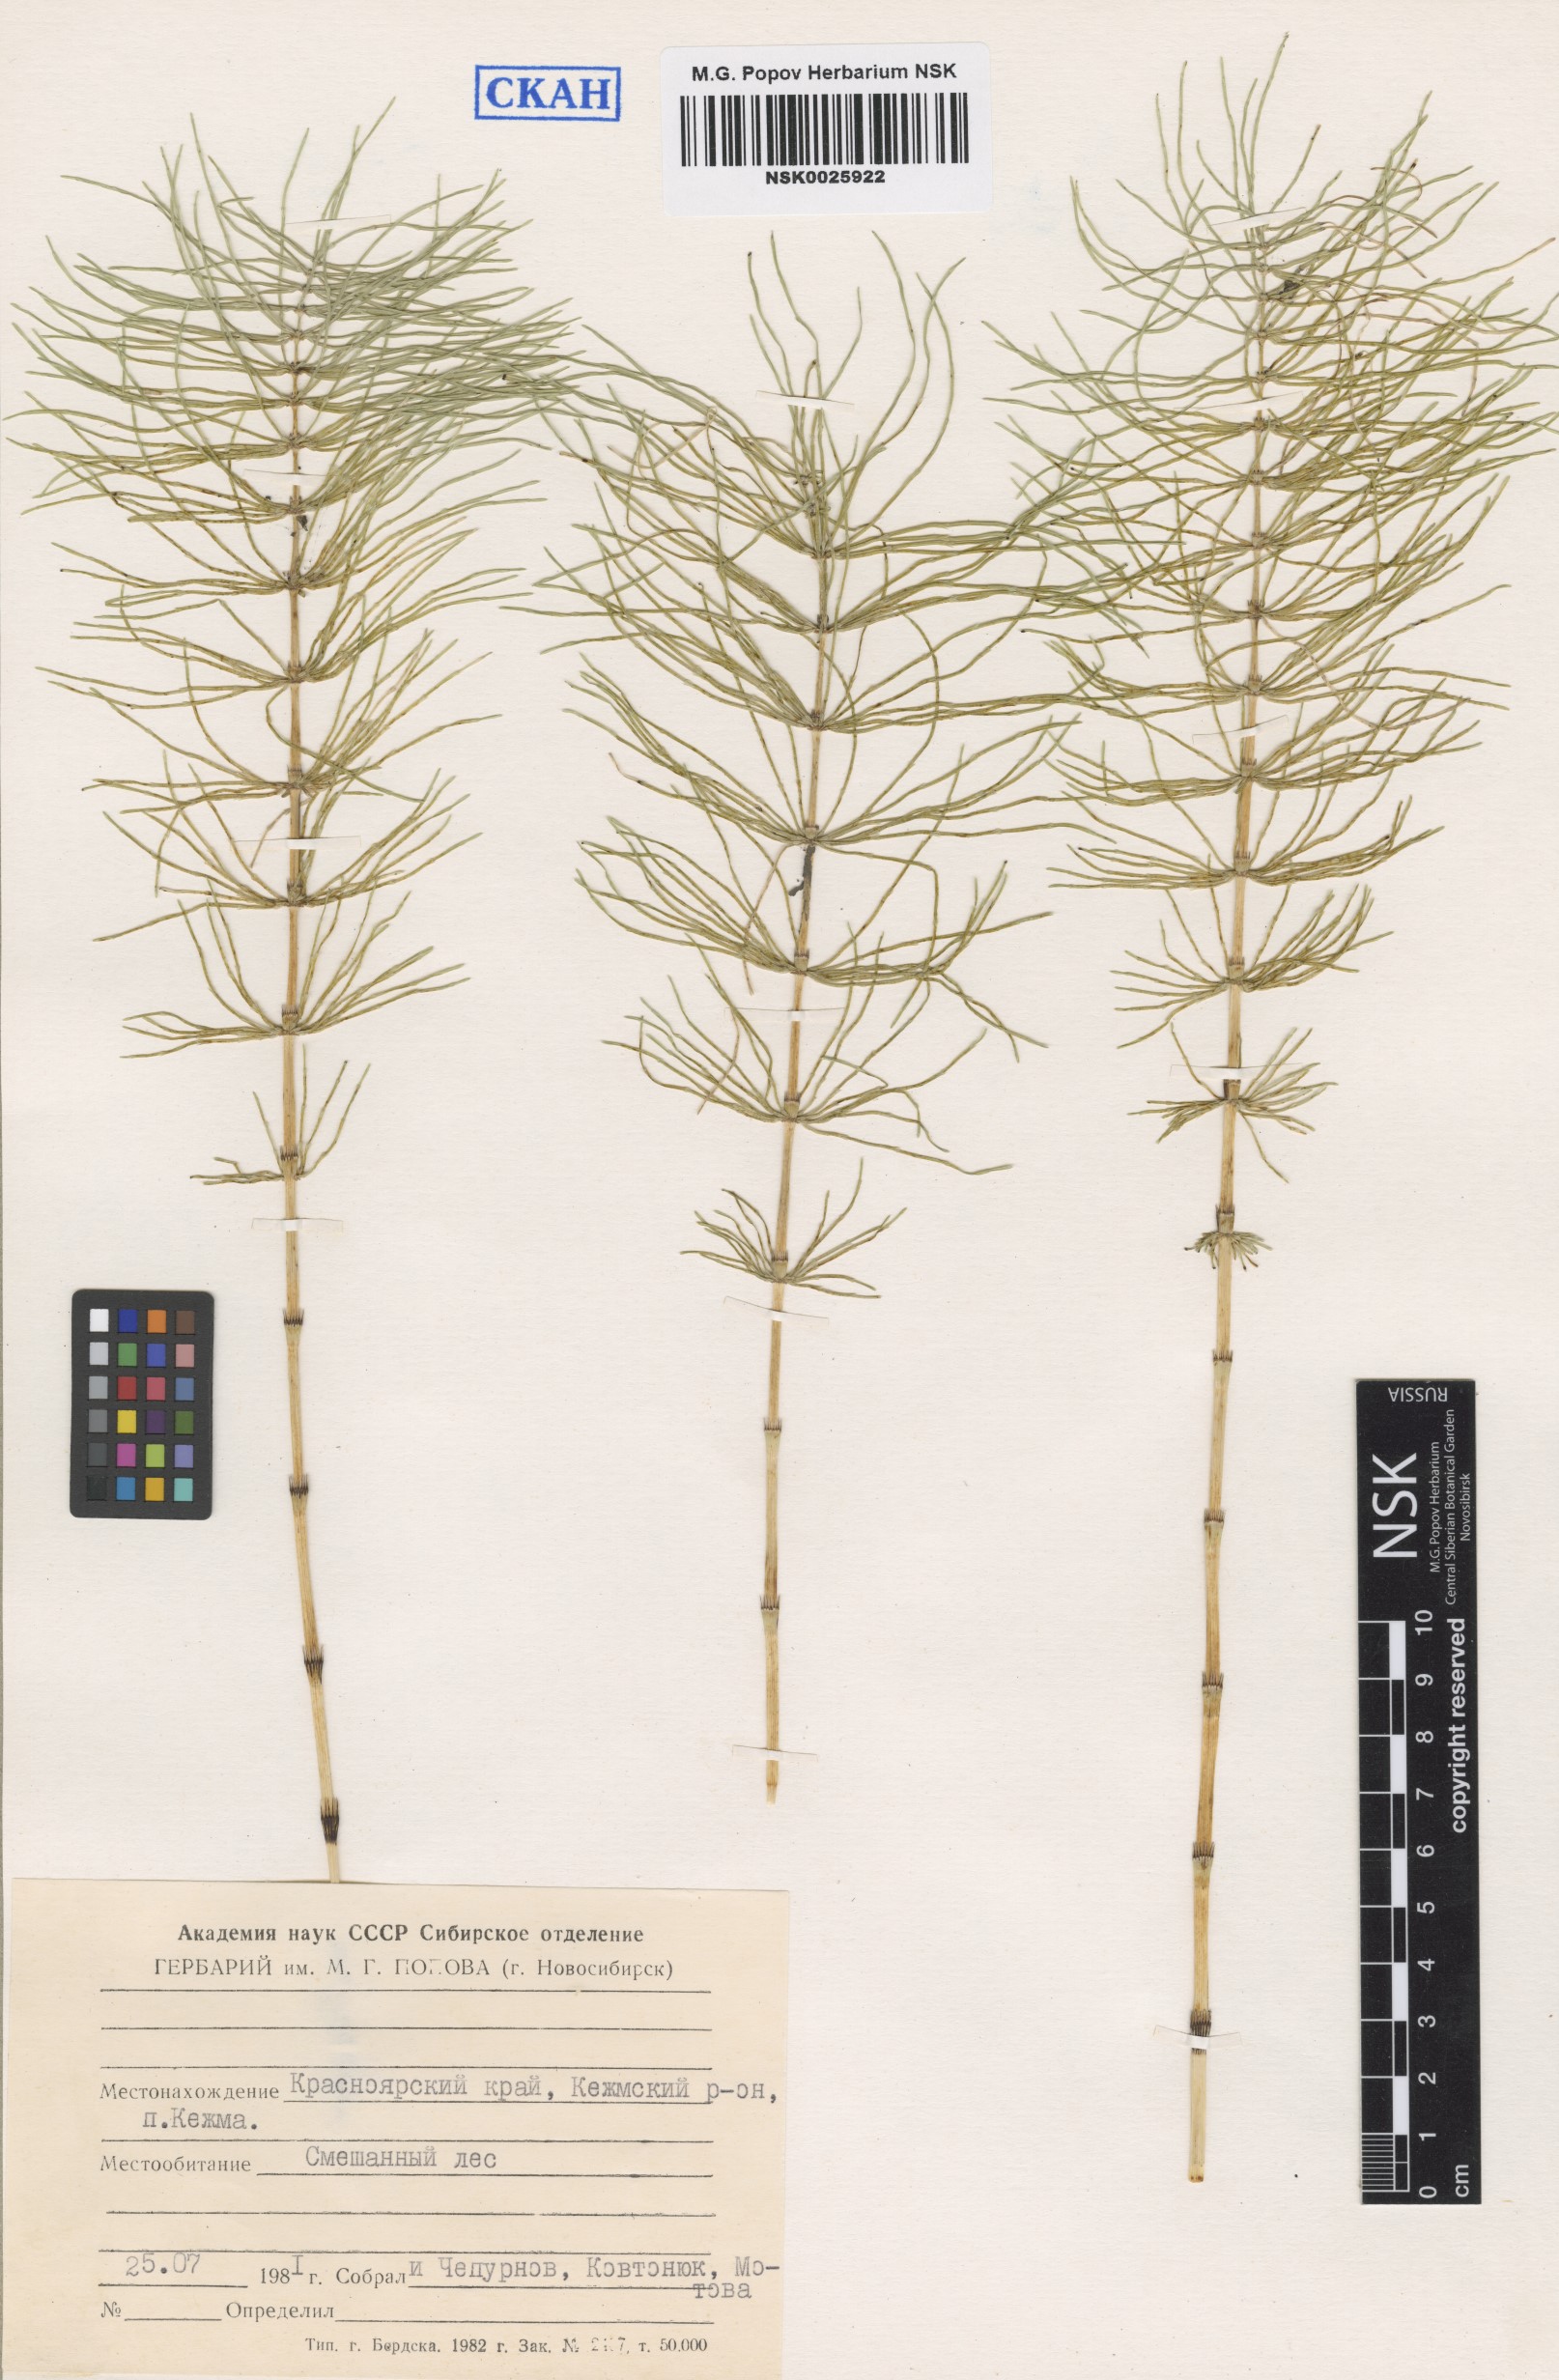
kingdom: Plantae
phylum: Tracheophyta
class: Polypodiopsida
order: Equisetales
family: Equisetaceae
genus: Equisetum
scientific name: Equisetum pratense
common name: Meadow horsetail
